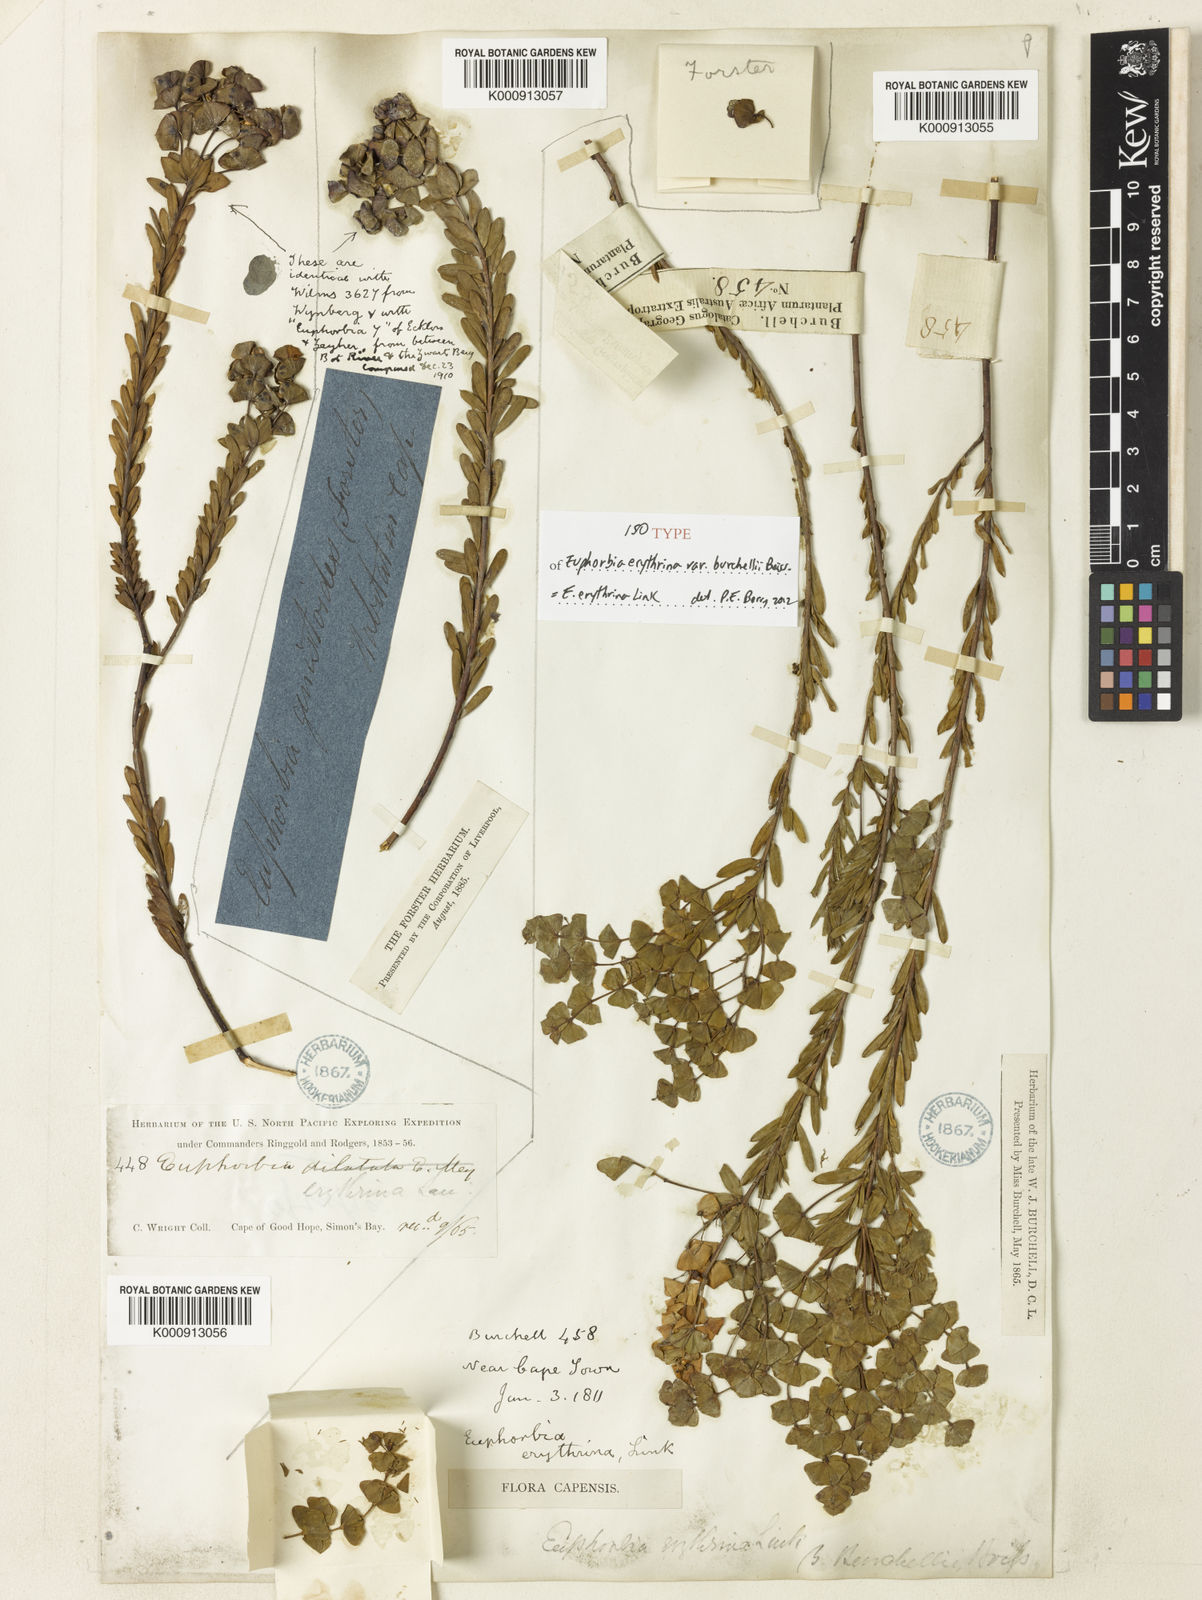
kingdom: Plantae
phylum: Tracheophyta
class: Magnoliopsida
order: Malpighiales
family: Euphorbiaceae
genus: Euphorbia
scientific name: Euphorbia genistoides
